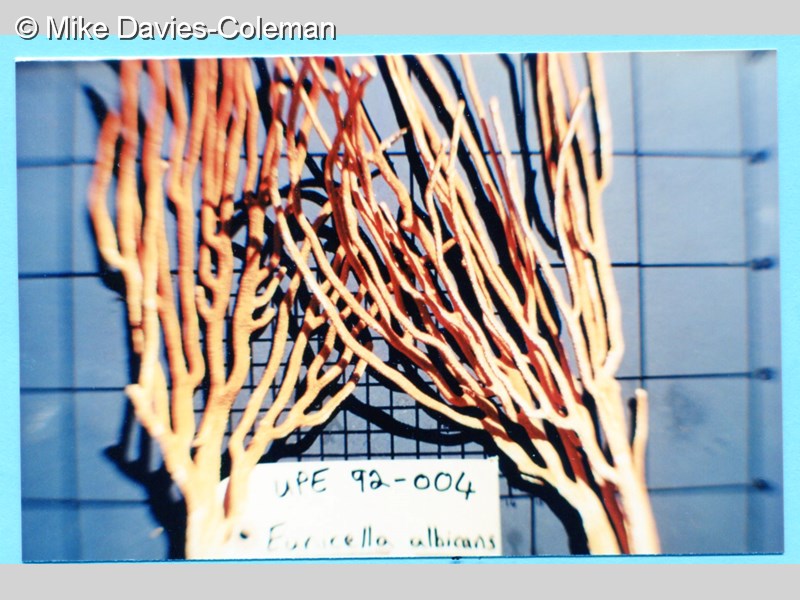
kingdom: Animalia
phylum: Cnidaria
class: Anthozoa
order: Malacalcyonacea
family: Eunicellidae
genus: Eunicella
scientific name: Eunicella albicans
